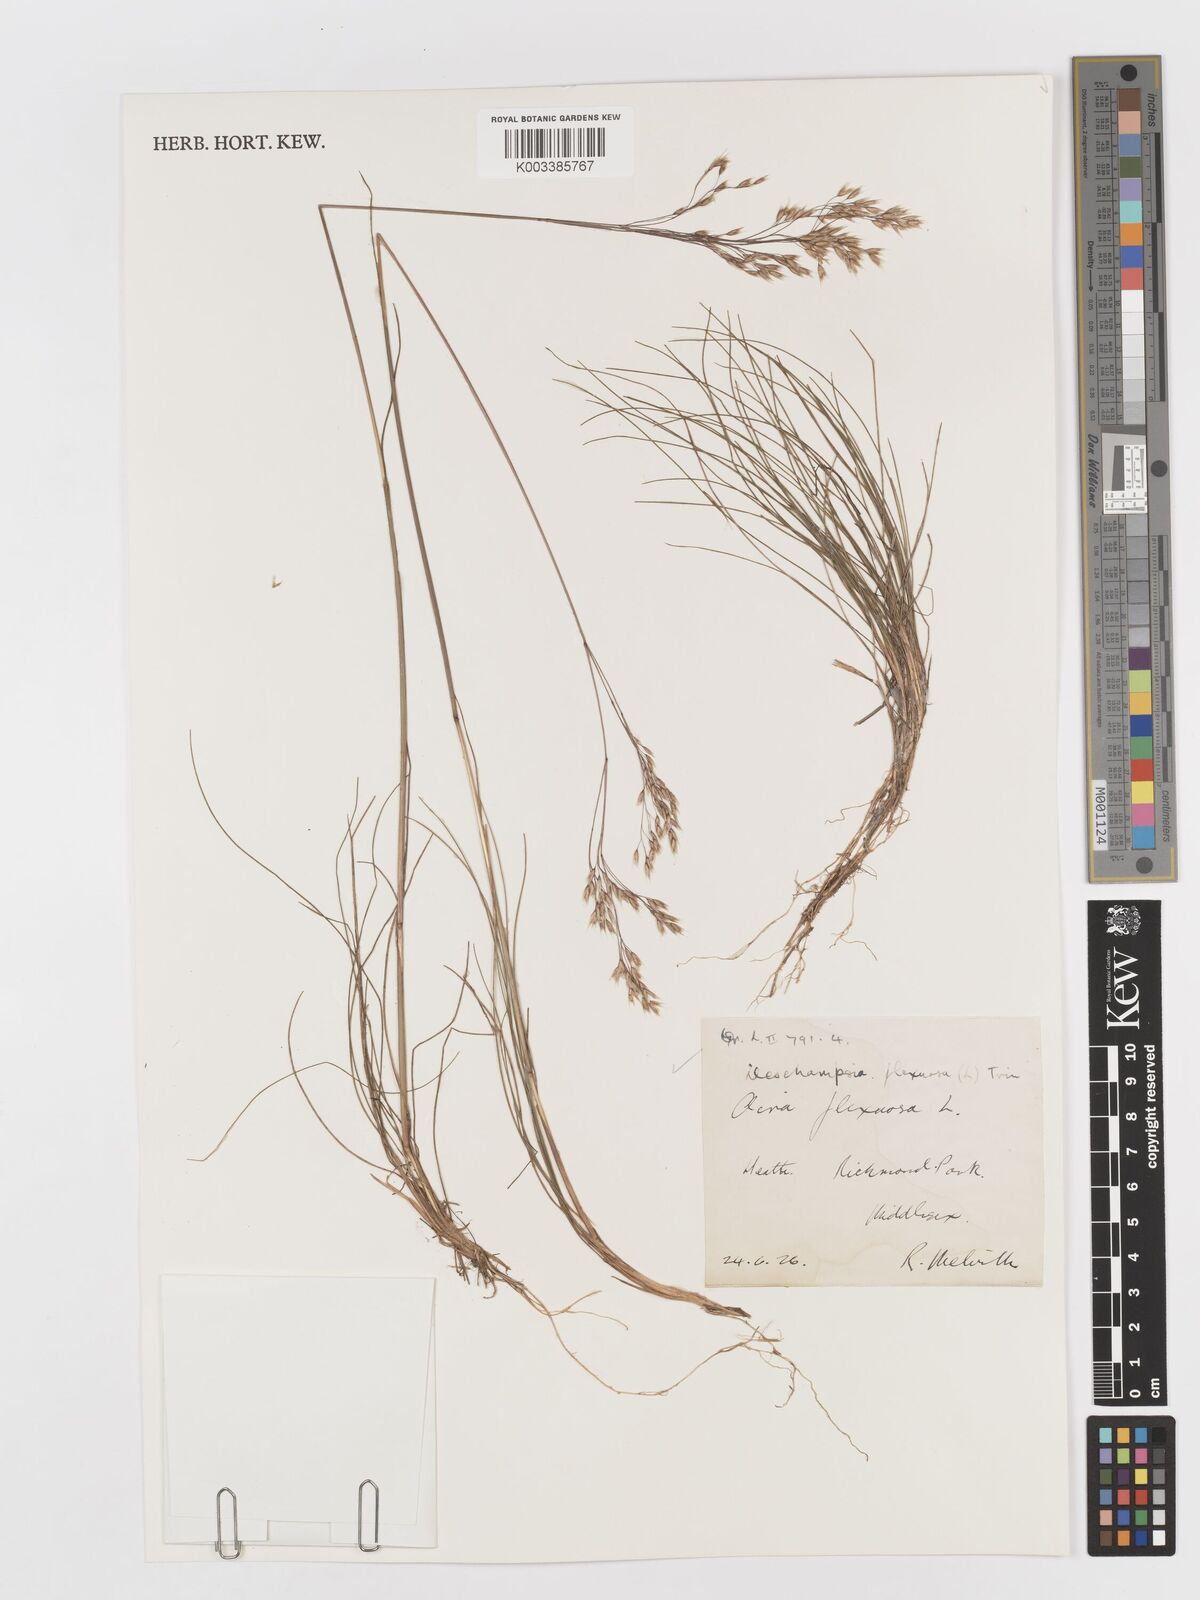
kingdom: Plantae
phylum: Tracheophyta
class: Liliopsida
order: Poales
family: Poaceae
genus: Avenella
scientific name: Avenella flexuosa
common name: Wavy hairgrass
